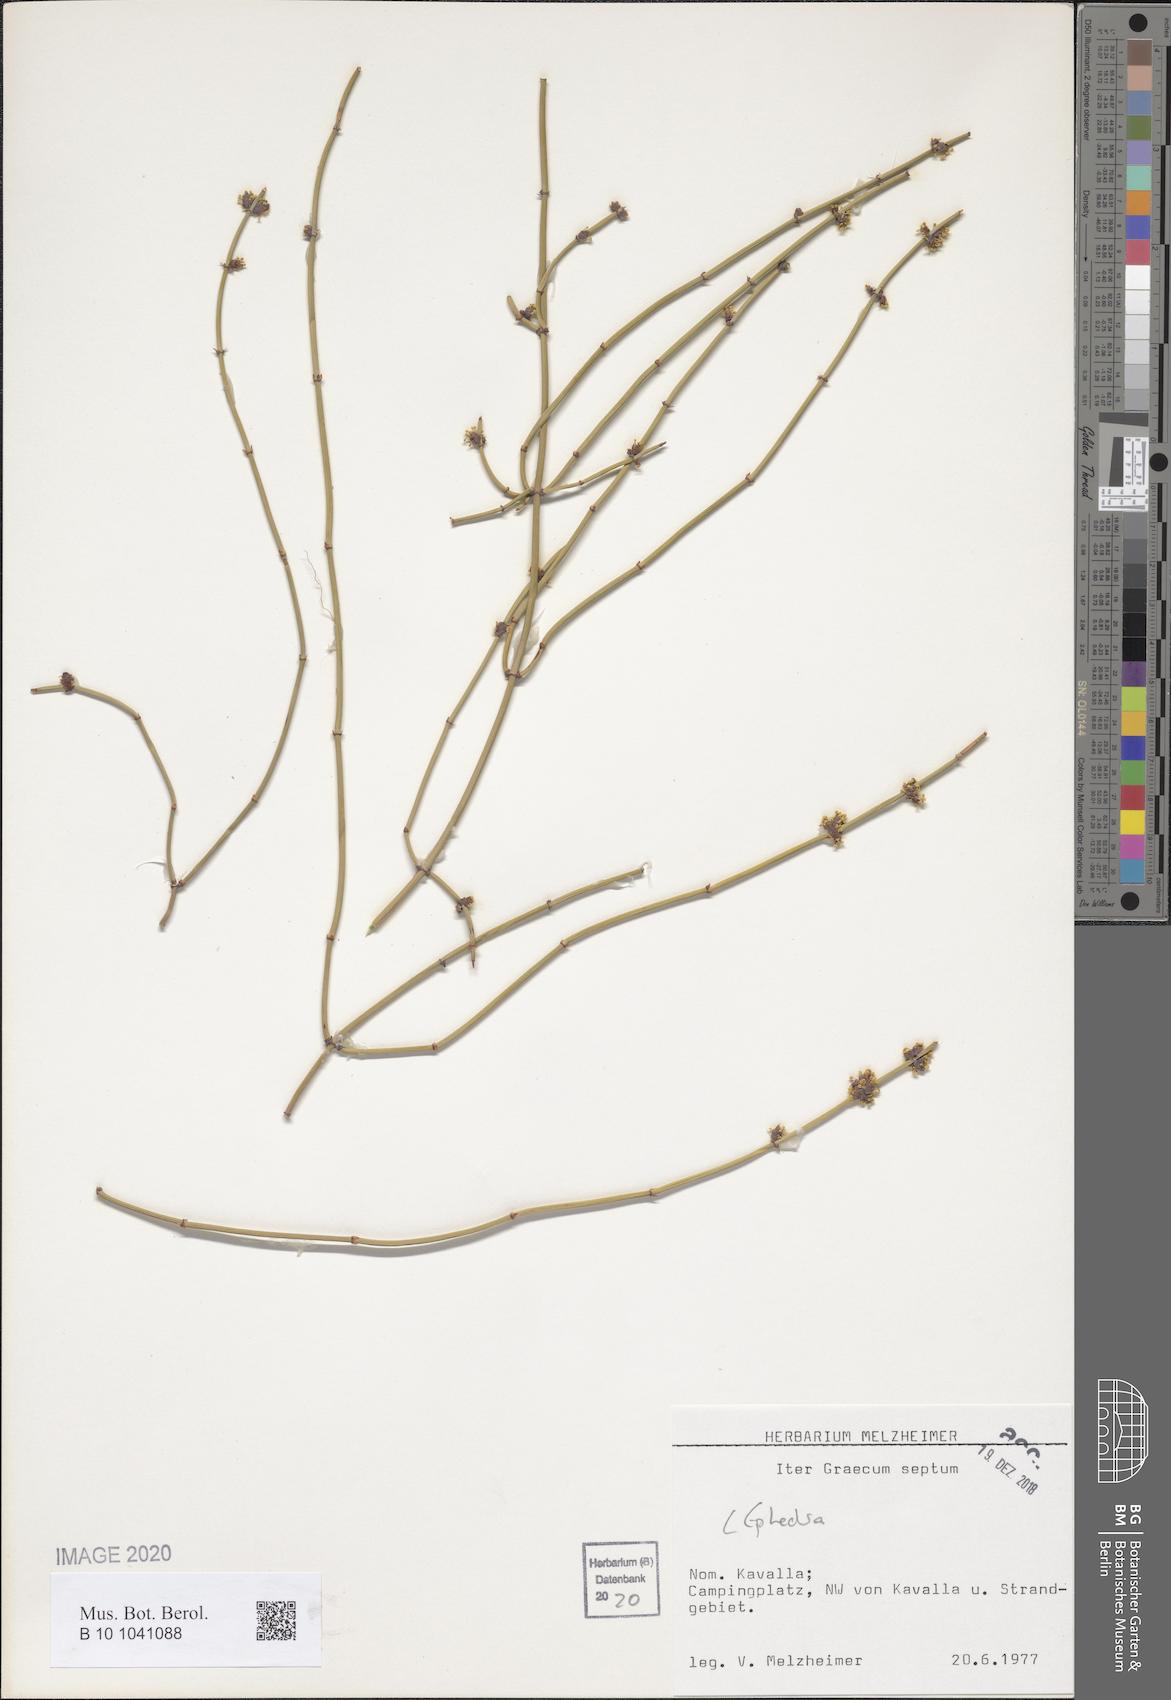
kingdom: Plantae
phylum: Tracheophyta
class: Gnetopsida
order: Ephedrales
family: Ephedraceae
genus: Ephedra
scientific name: Ephedra
